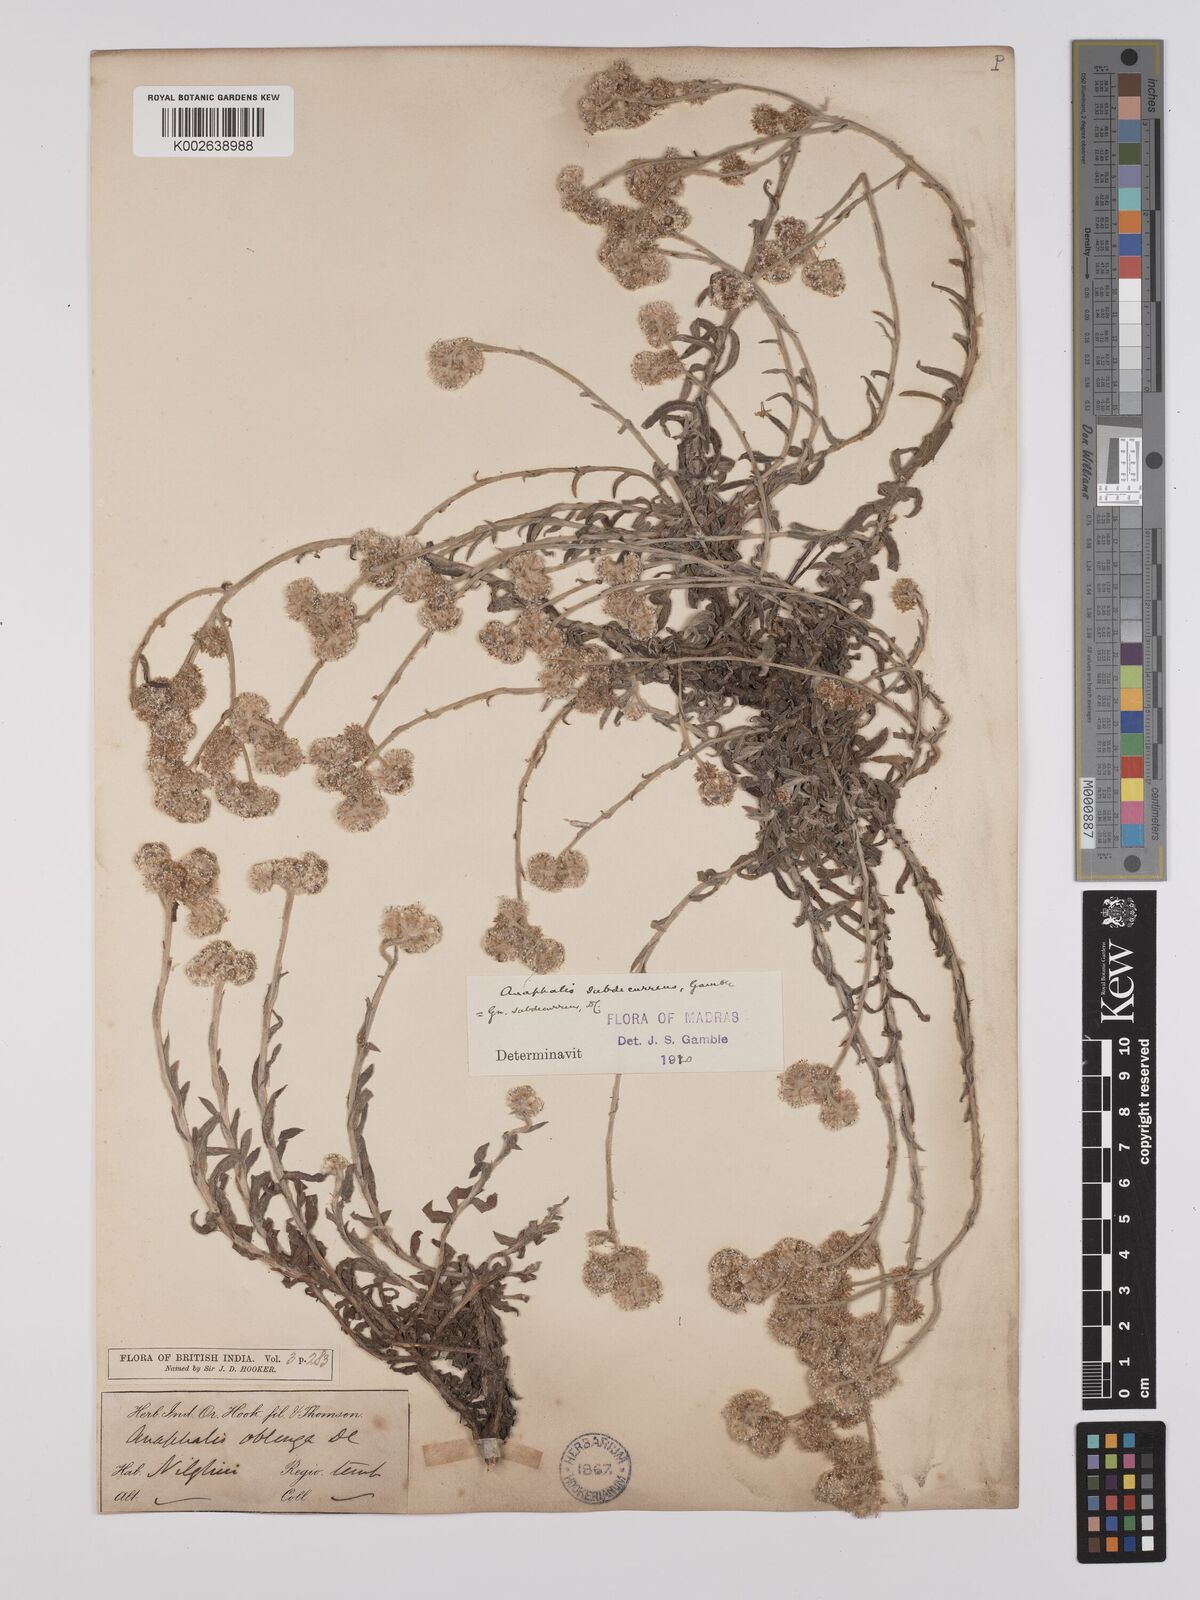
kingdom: Plantae
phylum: Tracheophyta
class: Magnoliopsida
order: Asterales
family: Asteraceae
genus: Anaphalis
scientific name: Anaphalis subdecurrens
